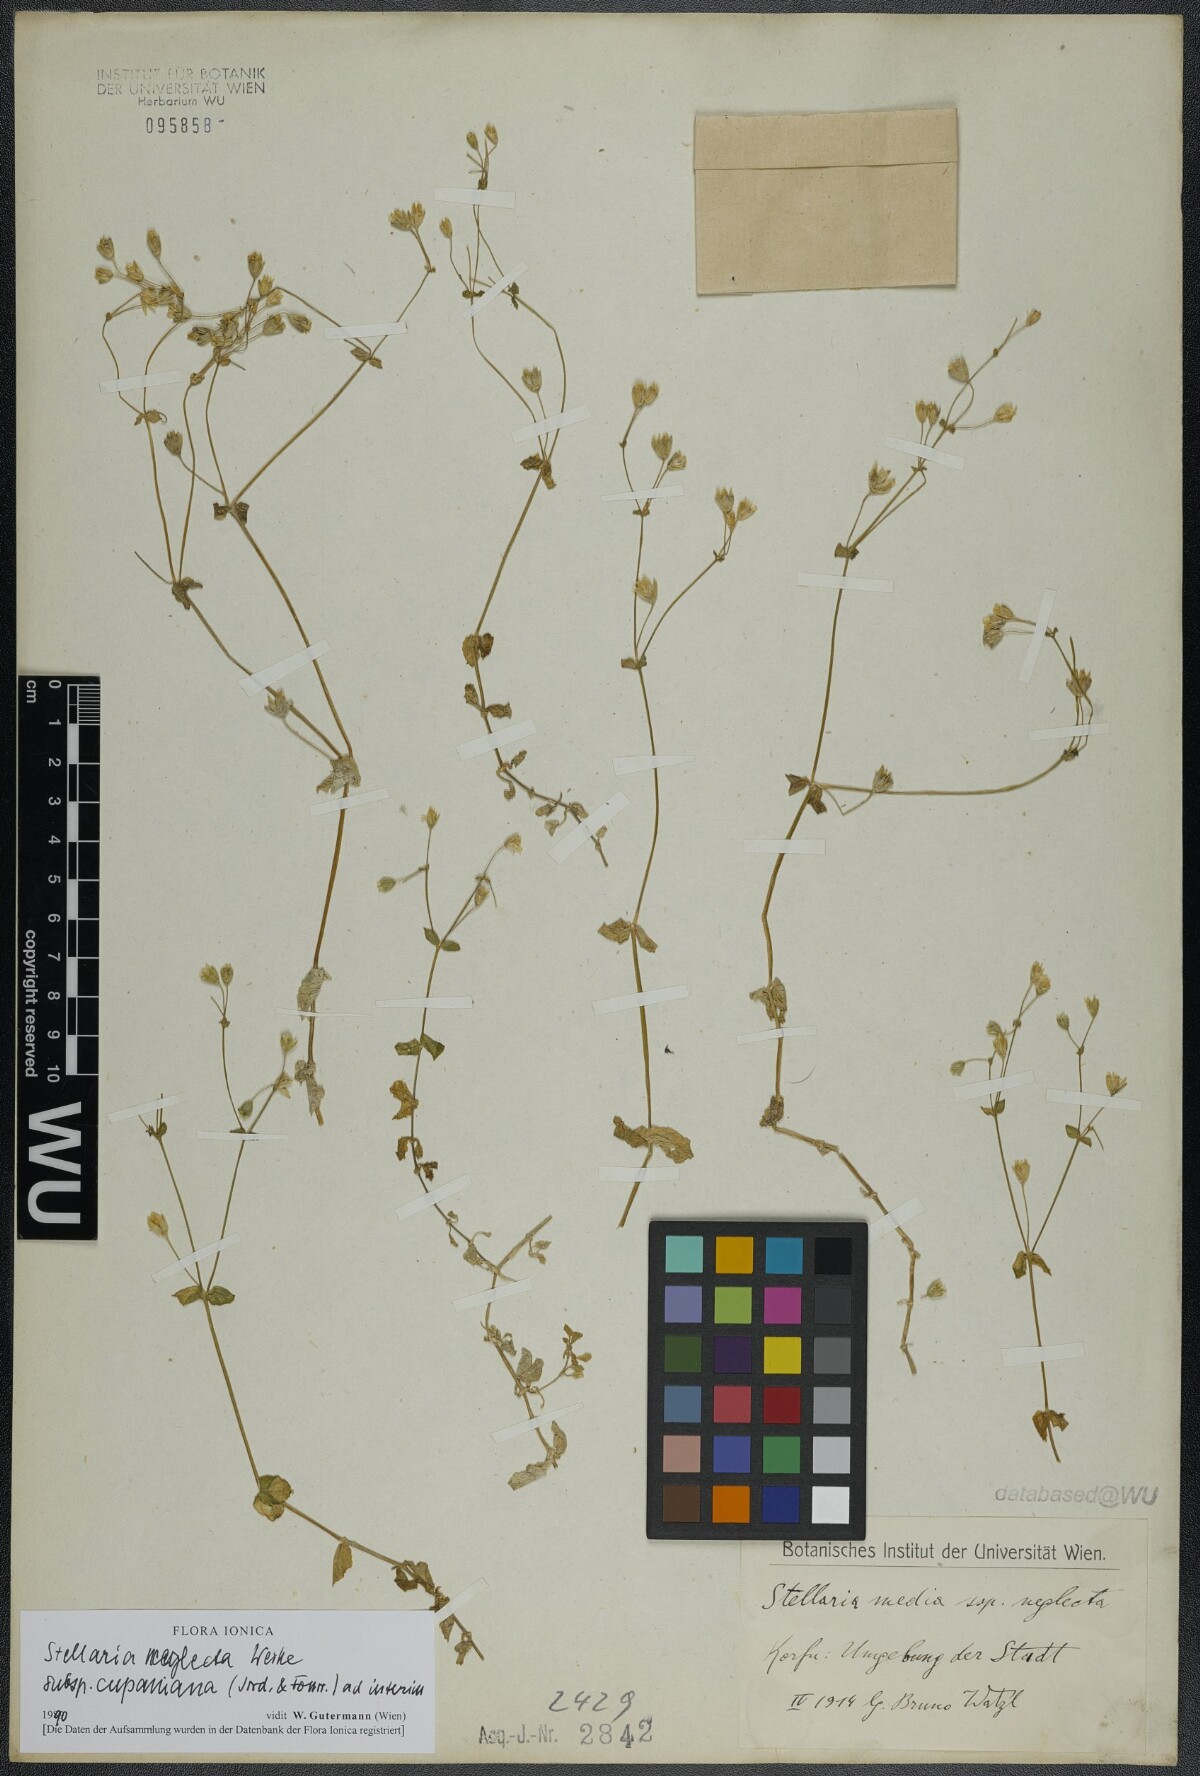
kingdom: Plantae
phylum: Tracheophyta
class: Magnoliopsida
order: Caryophyllales
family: Caryophyllaceae
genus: Stellaria
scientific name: Stellaria cupaniana
